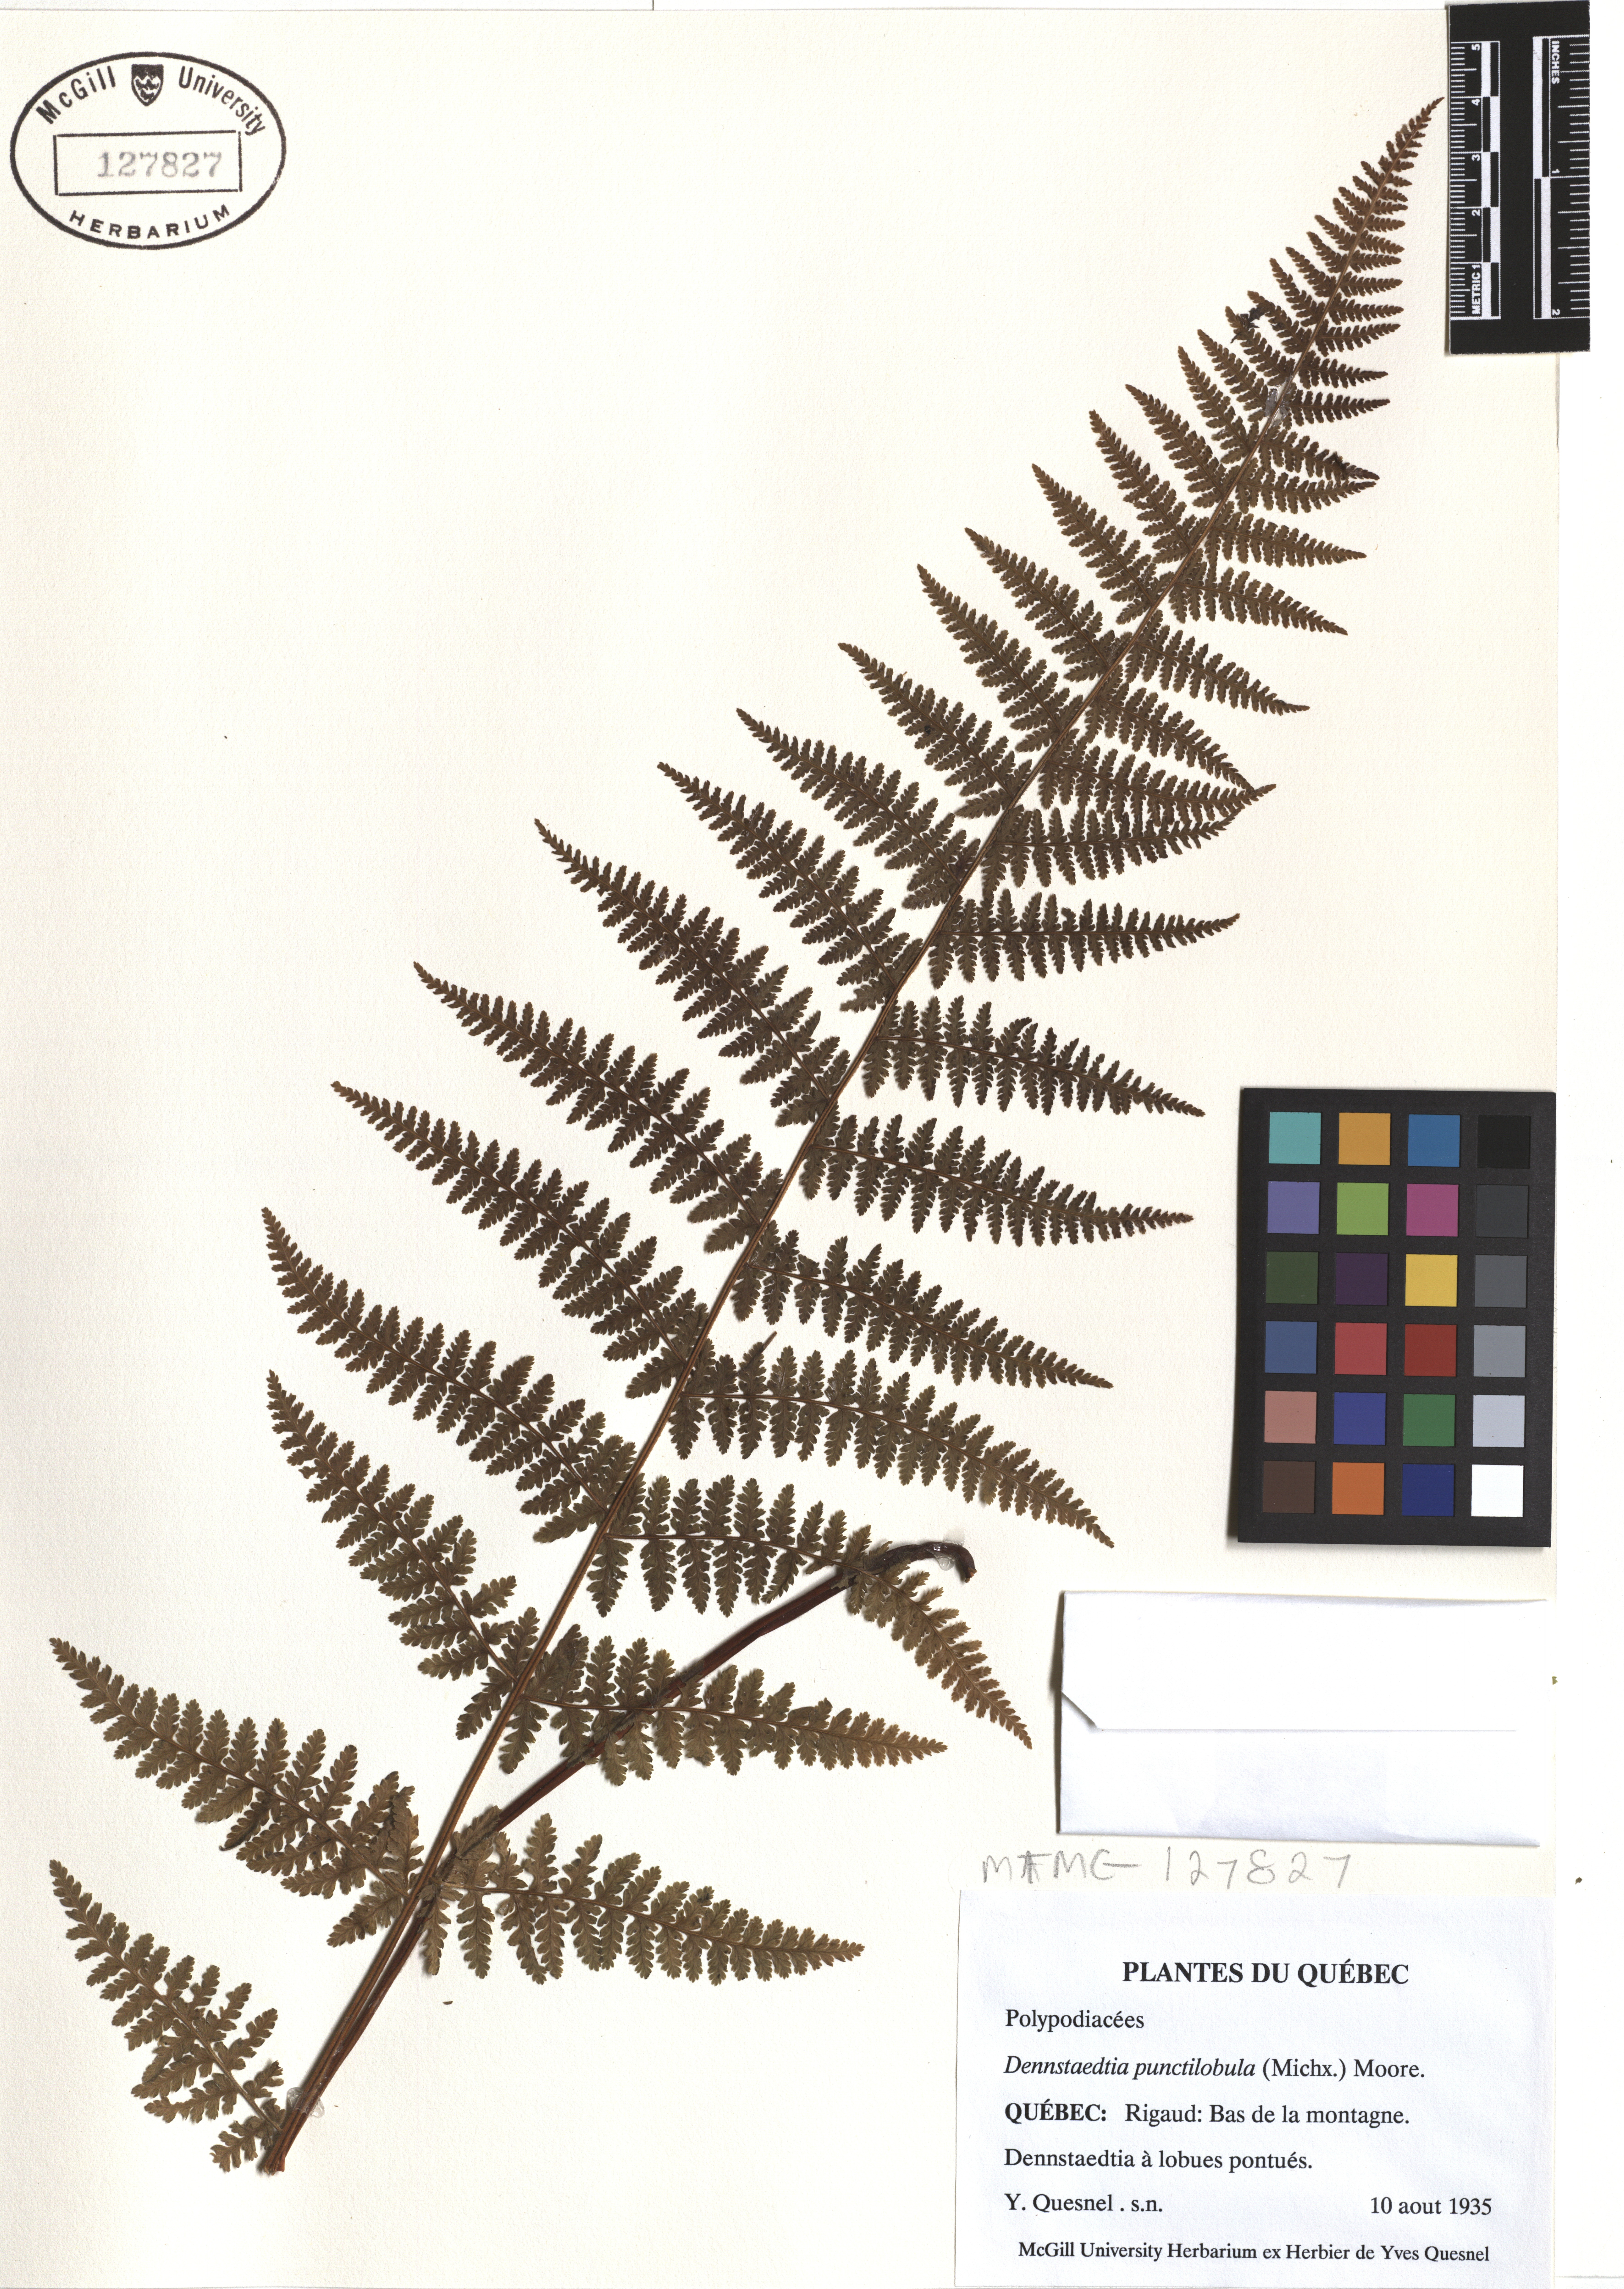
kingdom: Plantae
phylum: Tracheophyta
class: Polypodiopsida
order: Polypodiales
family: Dennstaedtiaceae
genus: Sitobolium
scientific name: Sitobolium punctilobum
